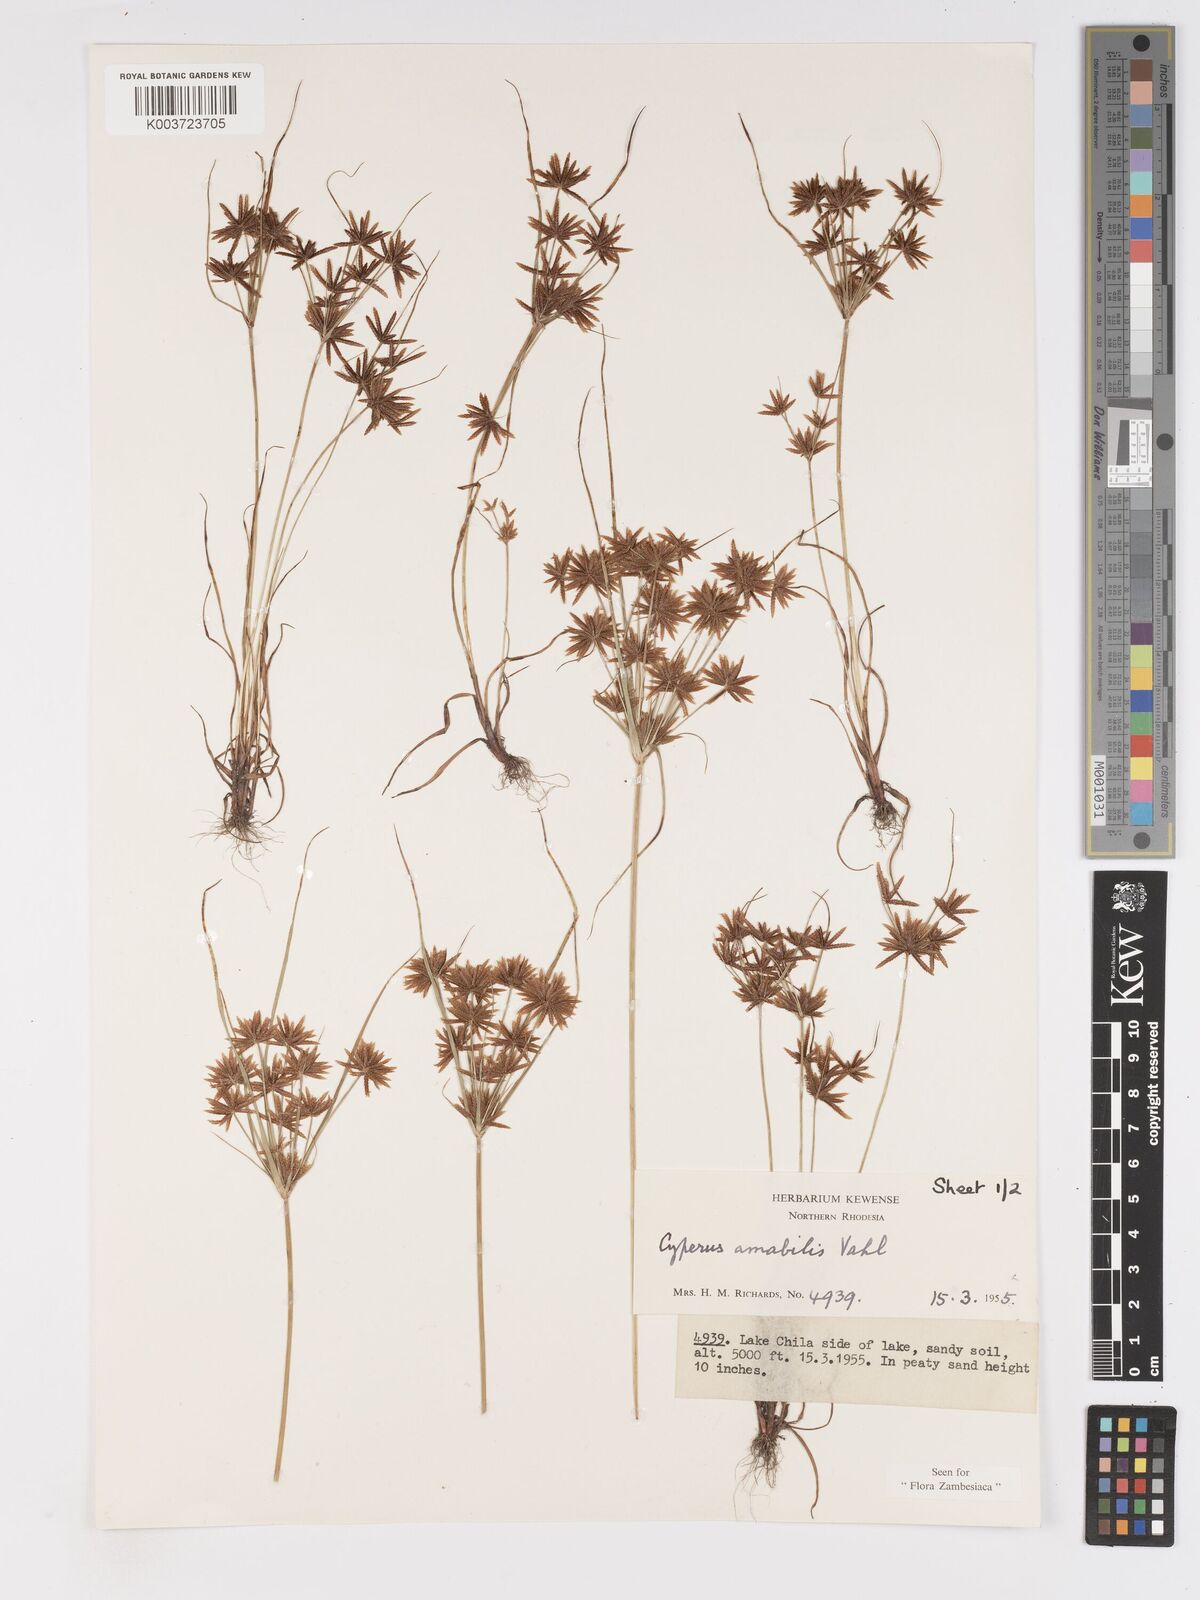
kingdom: Plantae
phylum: Tracheophyta
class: Liliopsida
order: Poales
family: Cyperaceae
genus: Cyperus
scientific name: Cyperus amabilis
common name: Foothill flat sedge
